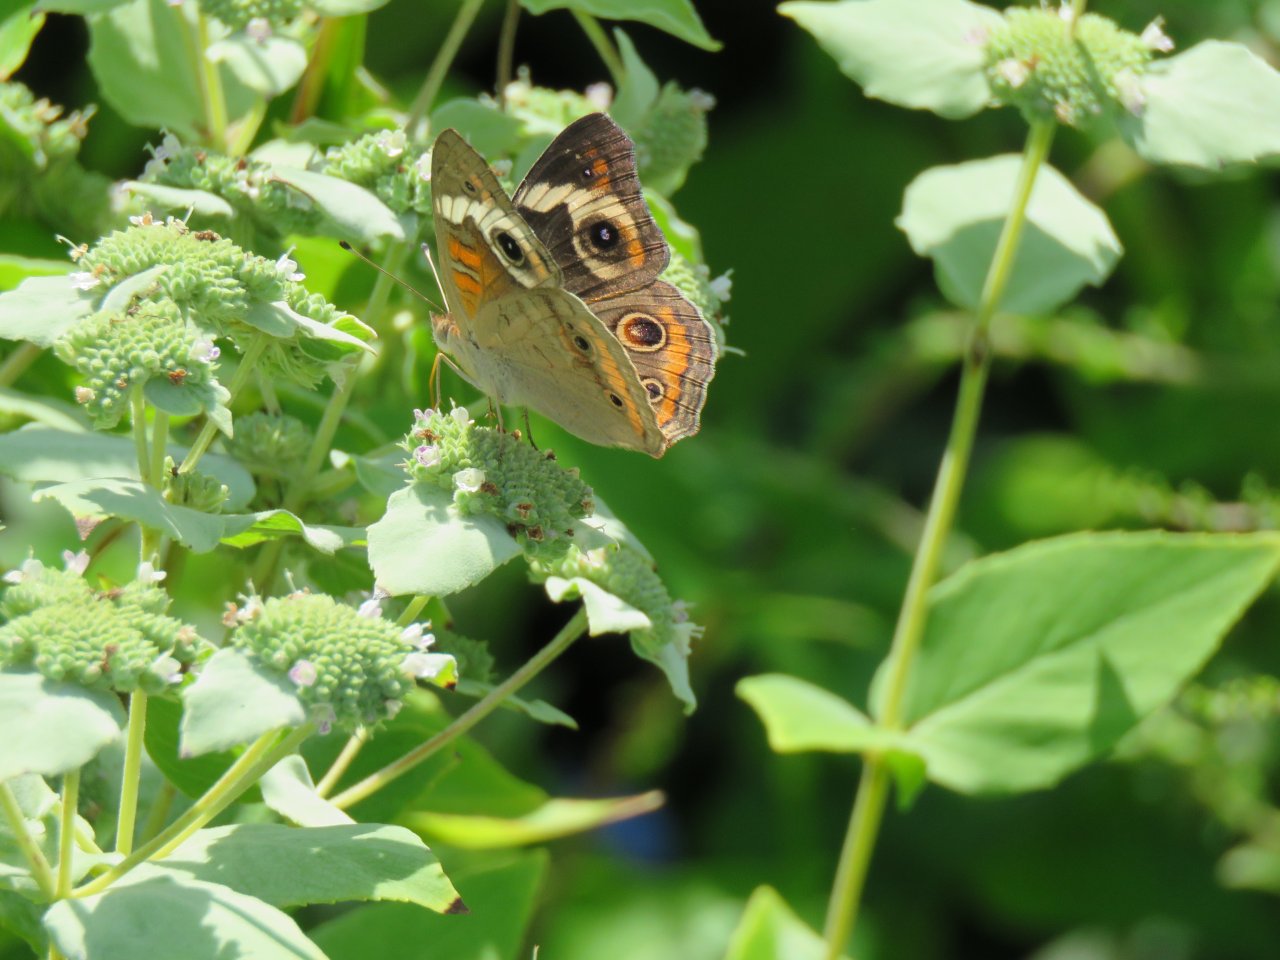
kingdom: Animalia
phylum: Arthropoda
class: Insecta
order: Lepidoptera
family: Nymphalidae
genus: Junonia
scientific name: Junonia coenia
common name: Common Buckeye
